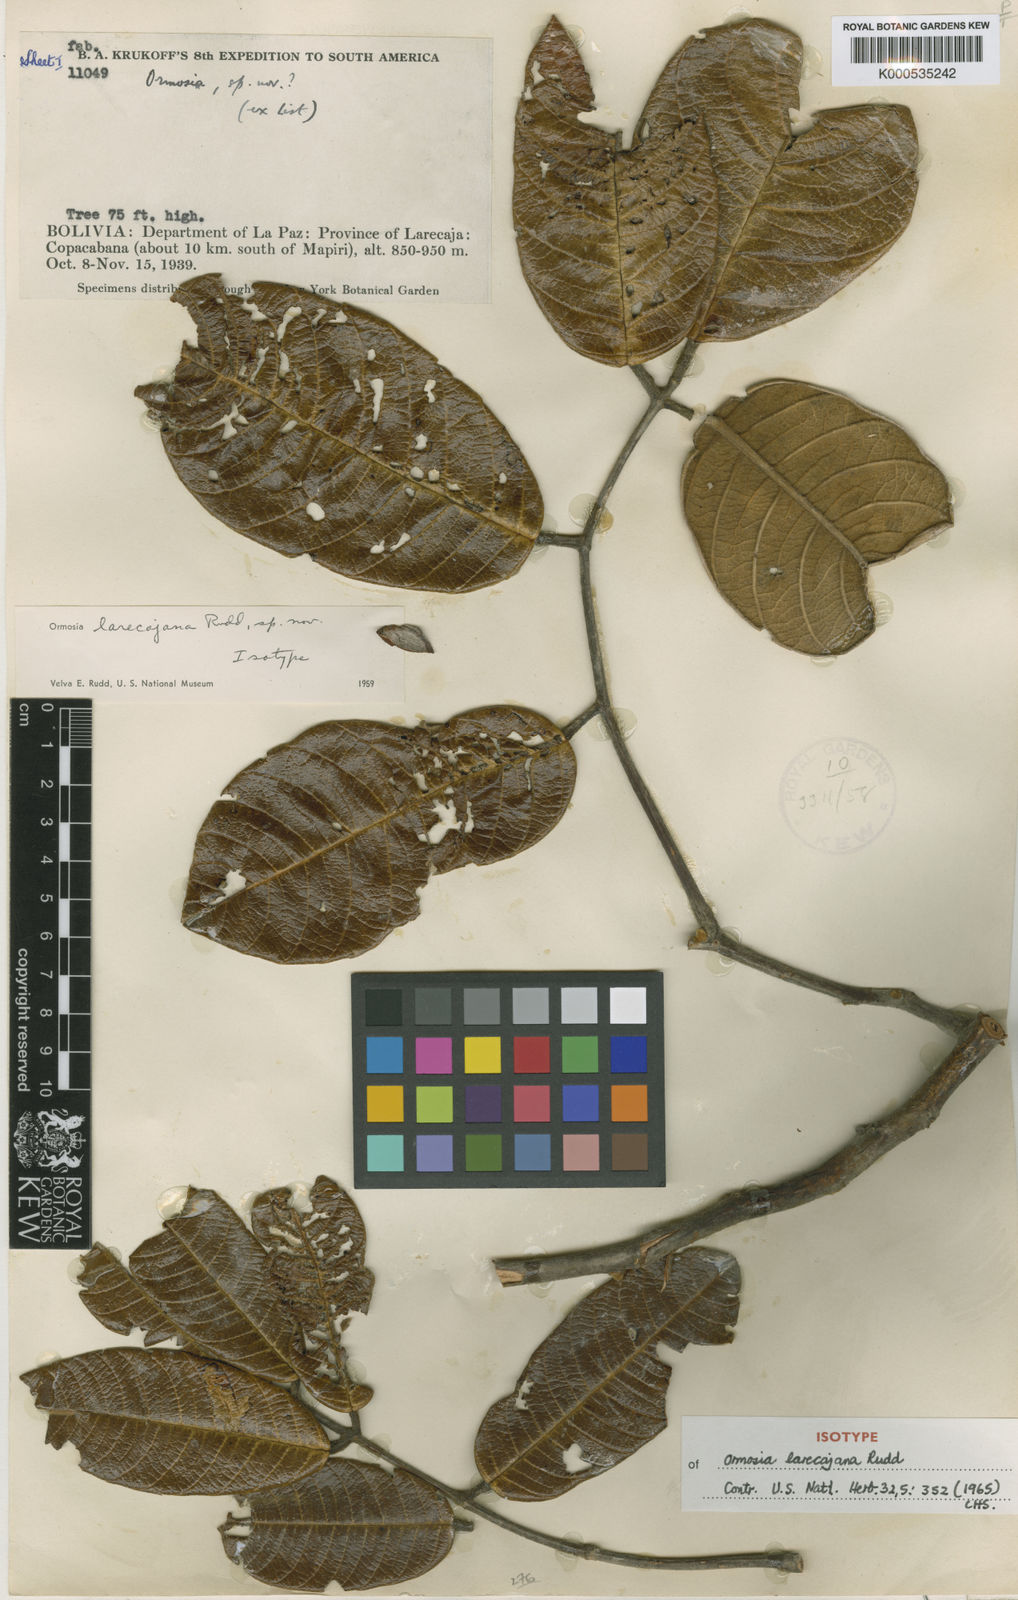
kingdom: Plantae
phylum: Tracheophyta
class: Magnoliopsida
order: Fabales
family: Fabaceae
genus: Ormosia
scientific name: Ormosia larecajana
